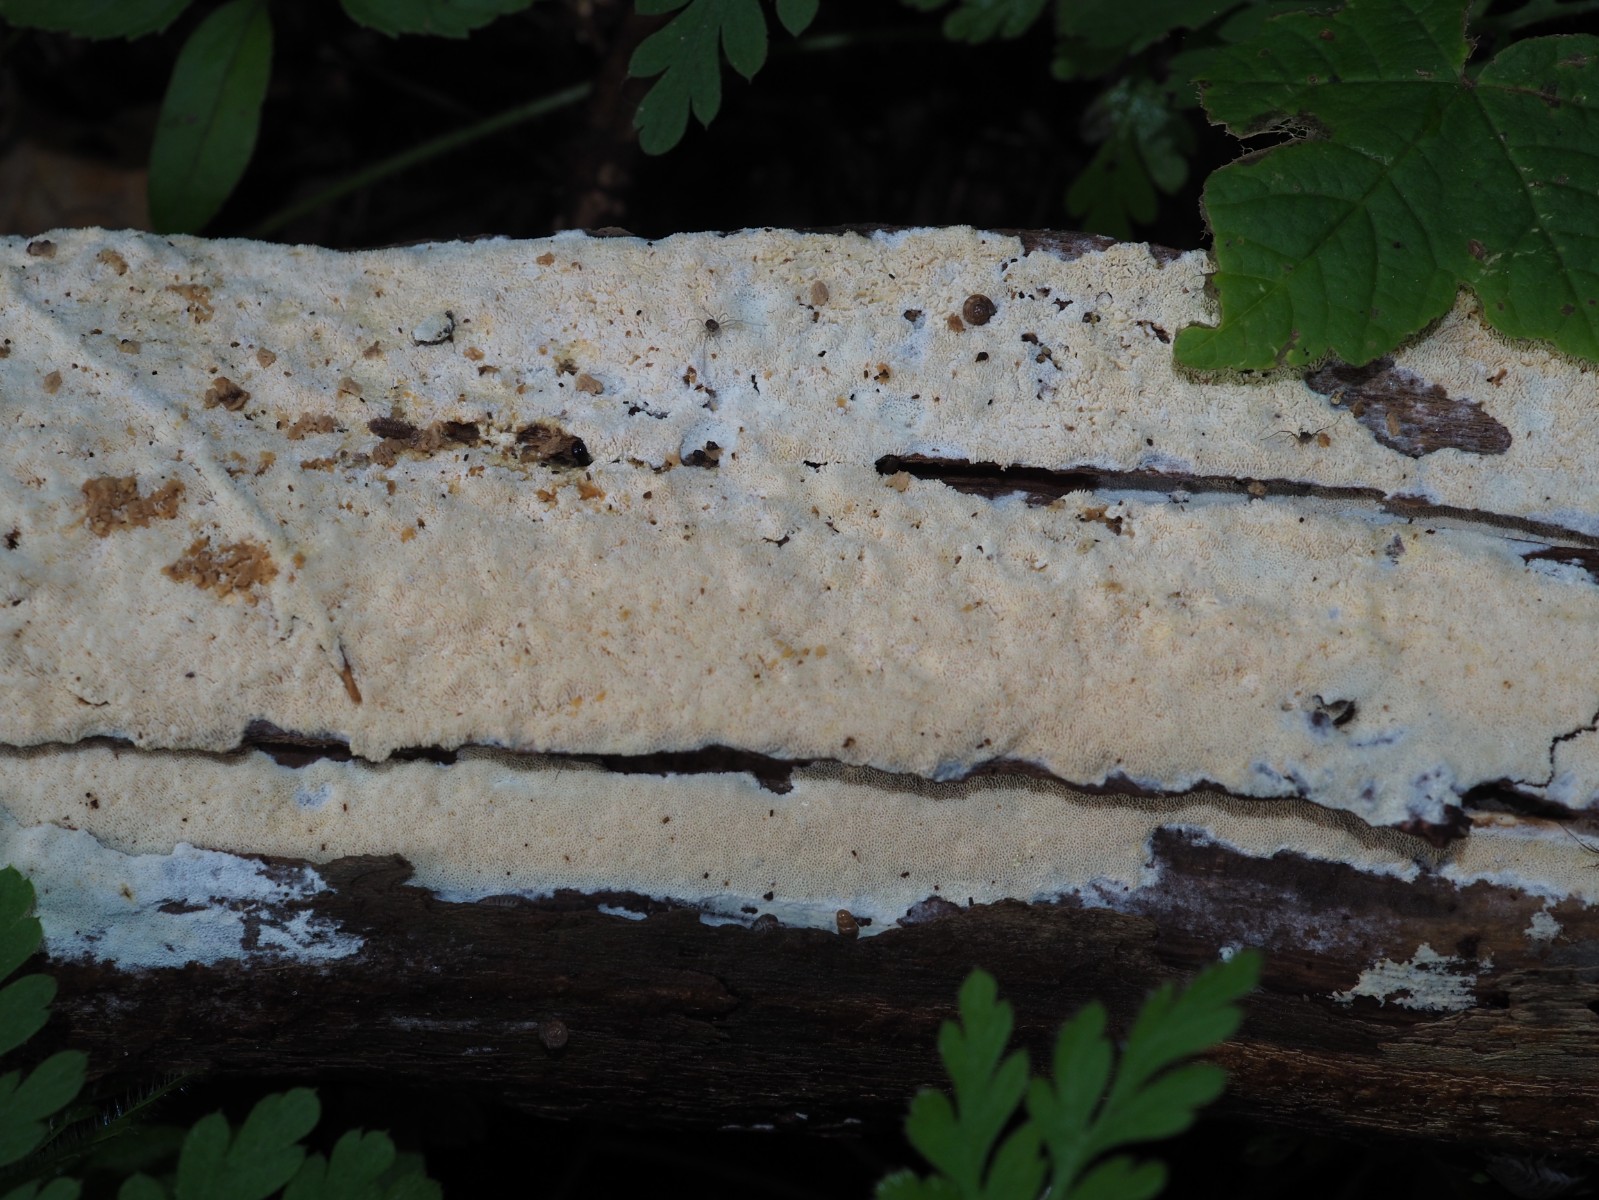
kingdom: Fungi
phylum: Basidiomycota
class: Agaricomycetes
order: Hymenochaetales
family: Schizoporaceae
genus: Xylodon
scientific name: Xylodon flaviporus
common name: gulporet tandsvamp
